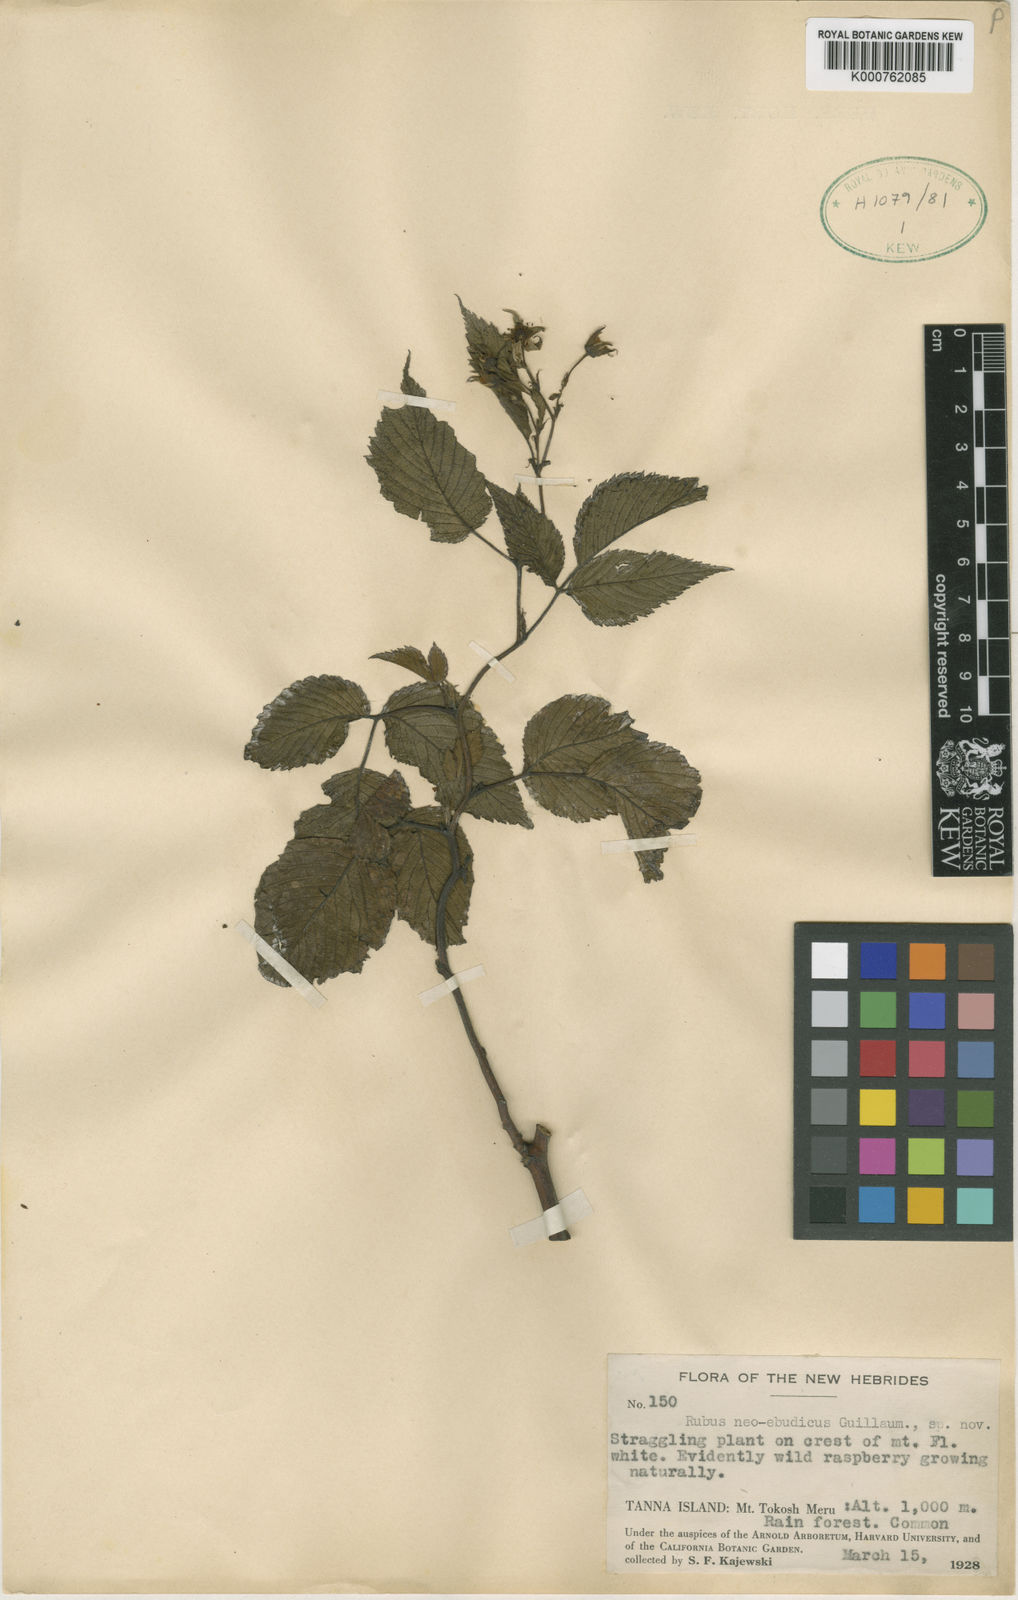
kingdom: Plantae
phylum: Tracheophyta
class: Magnoliopsida
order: Rosales
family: Rosaceae
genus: Rubus
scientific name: Rubus neoebudicus
